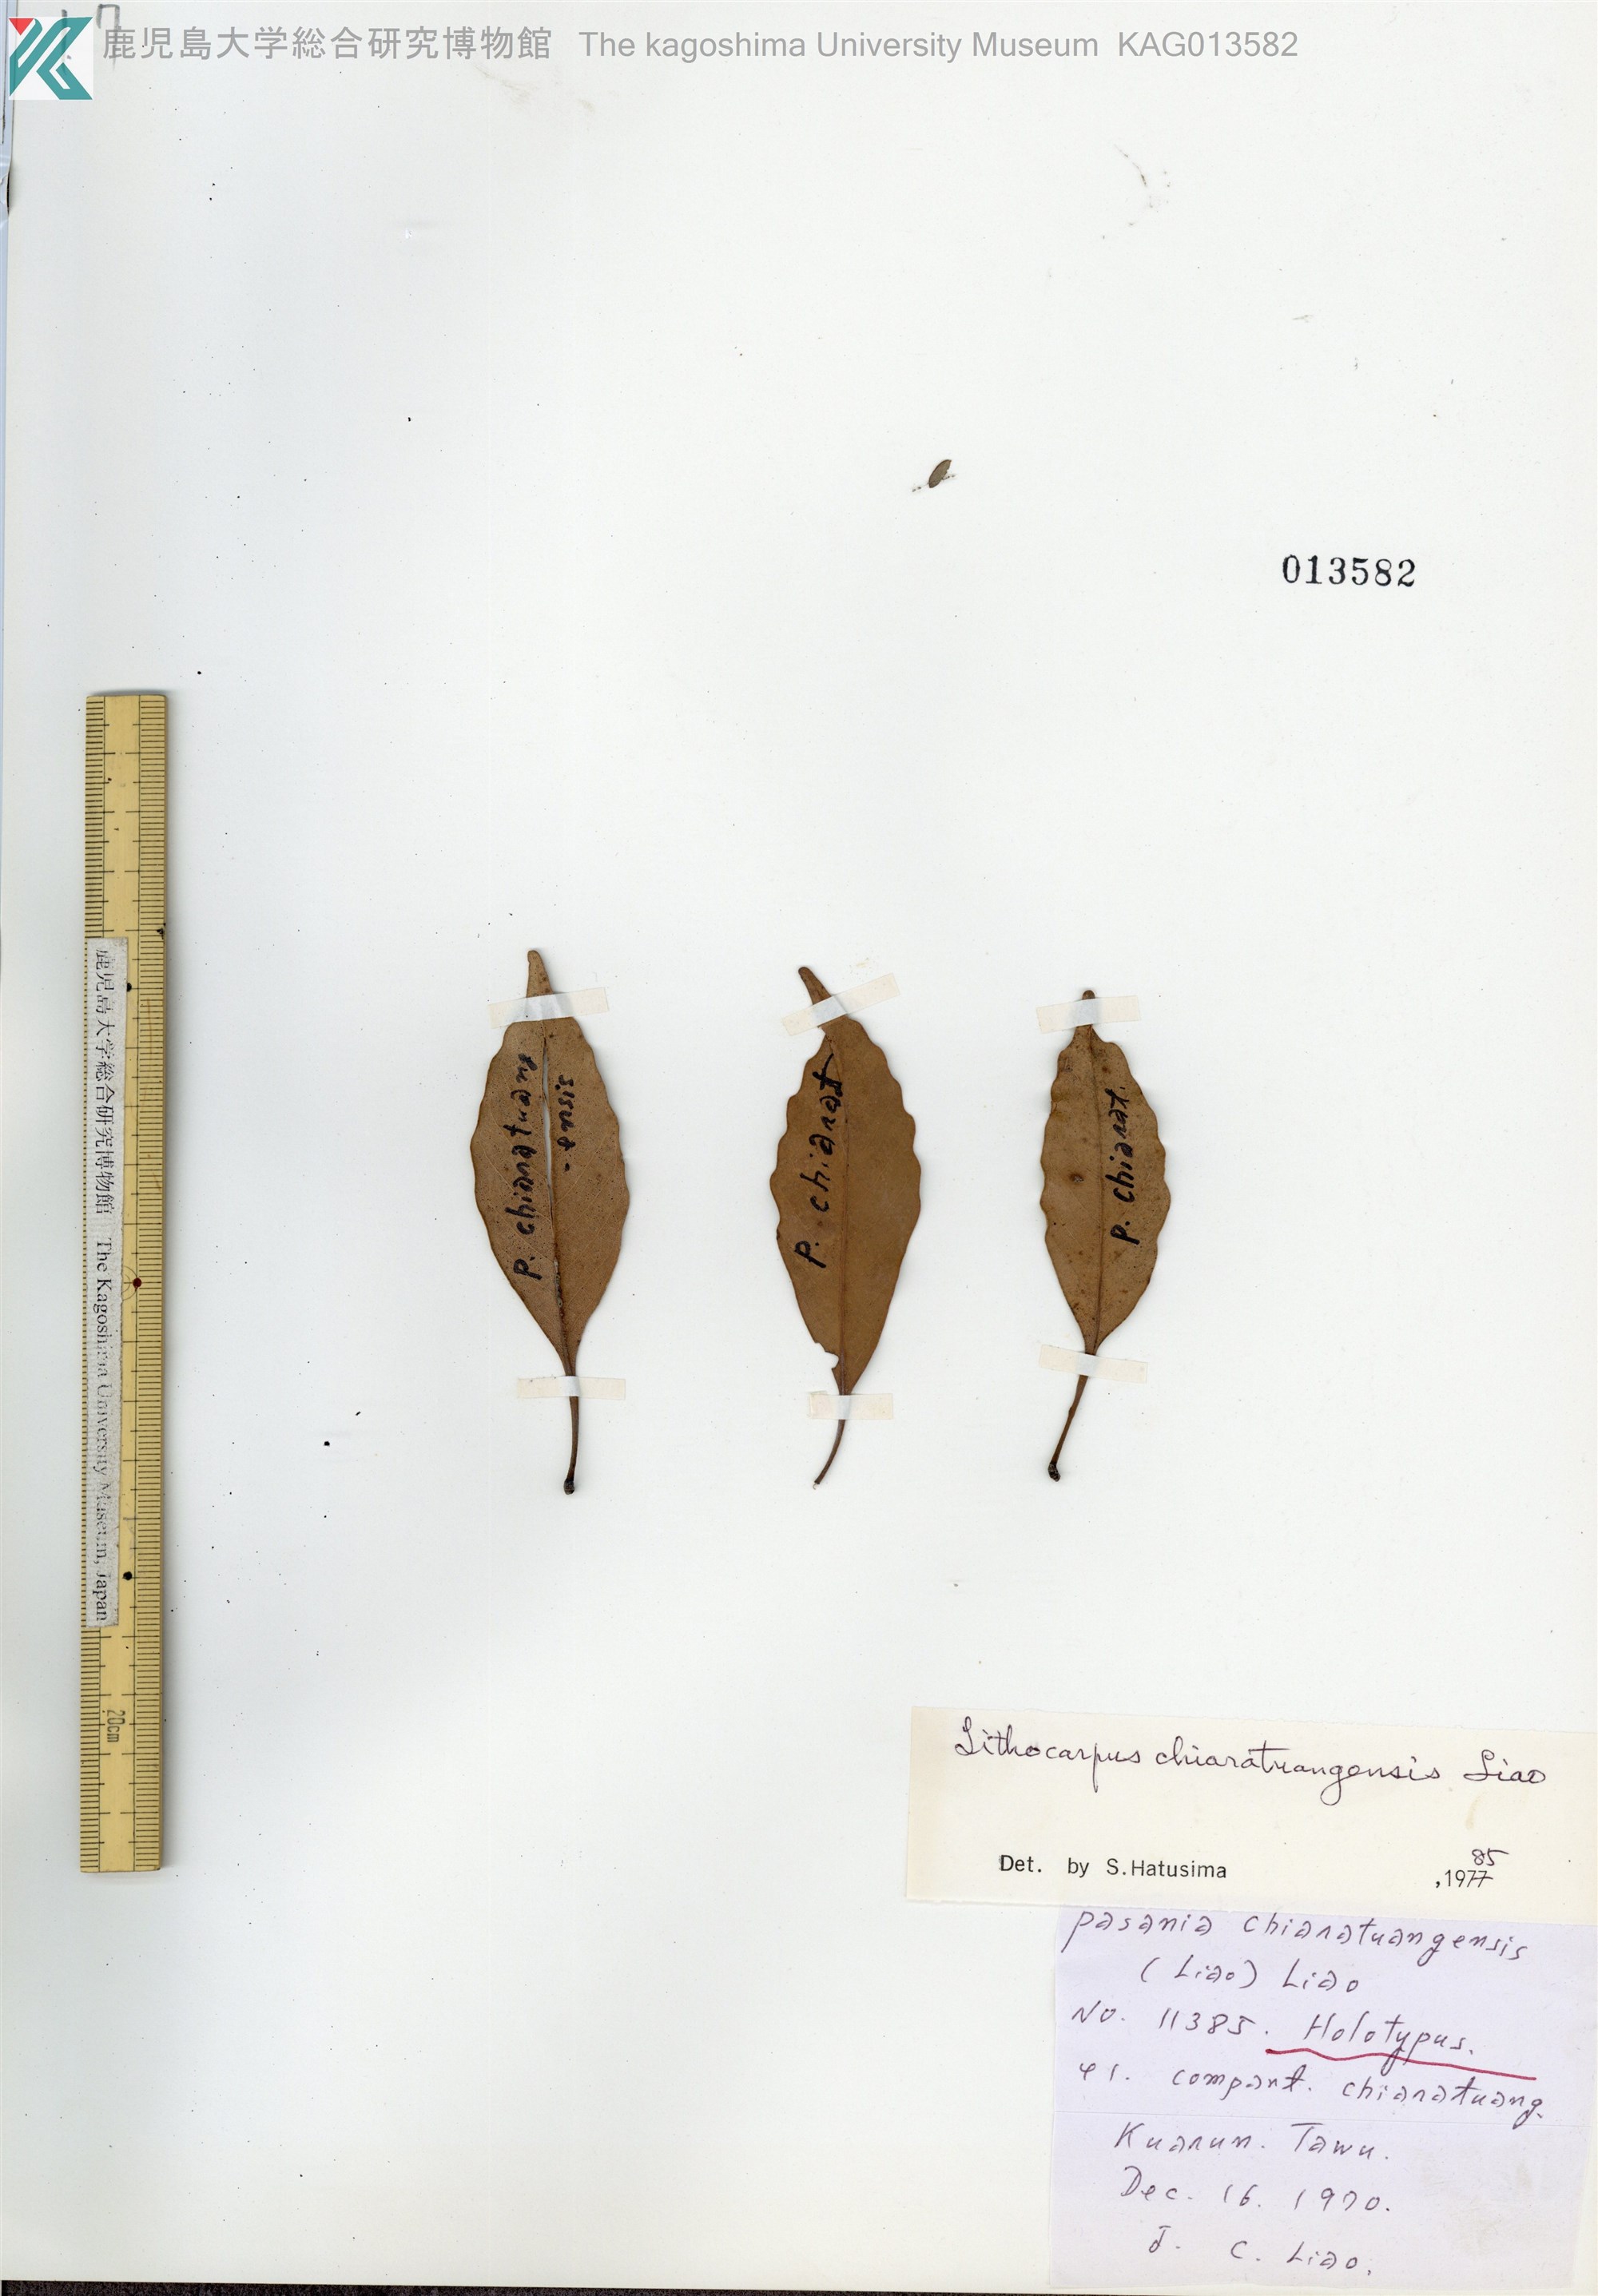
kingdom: Plantae
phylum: Tracheophyta
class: Magnoliopsida
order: Fagales
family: Fagaceae
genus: Lithocarpus
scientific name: Lithocarpus harlandii
